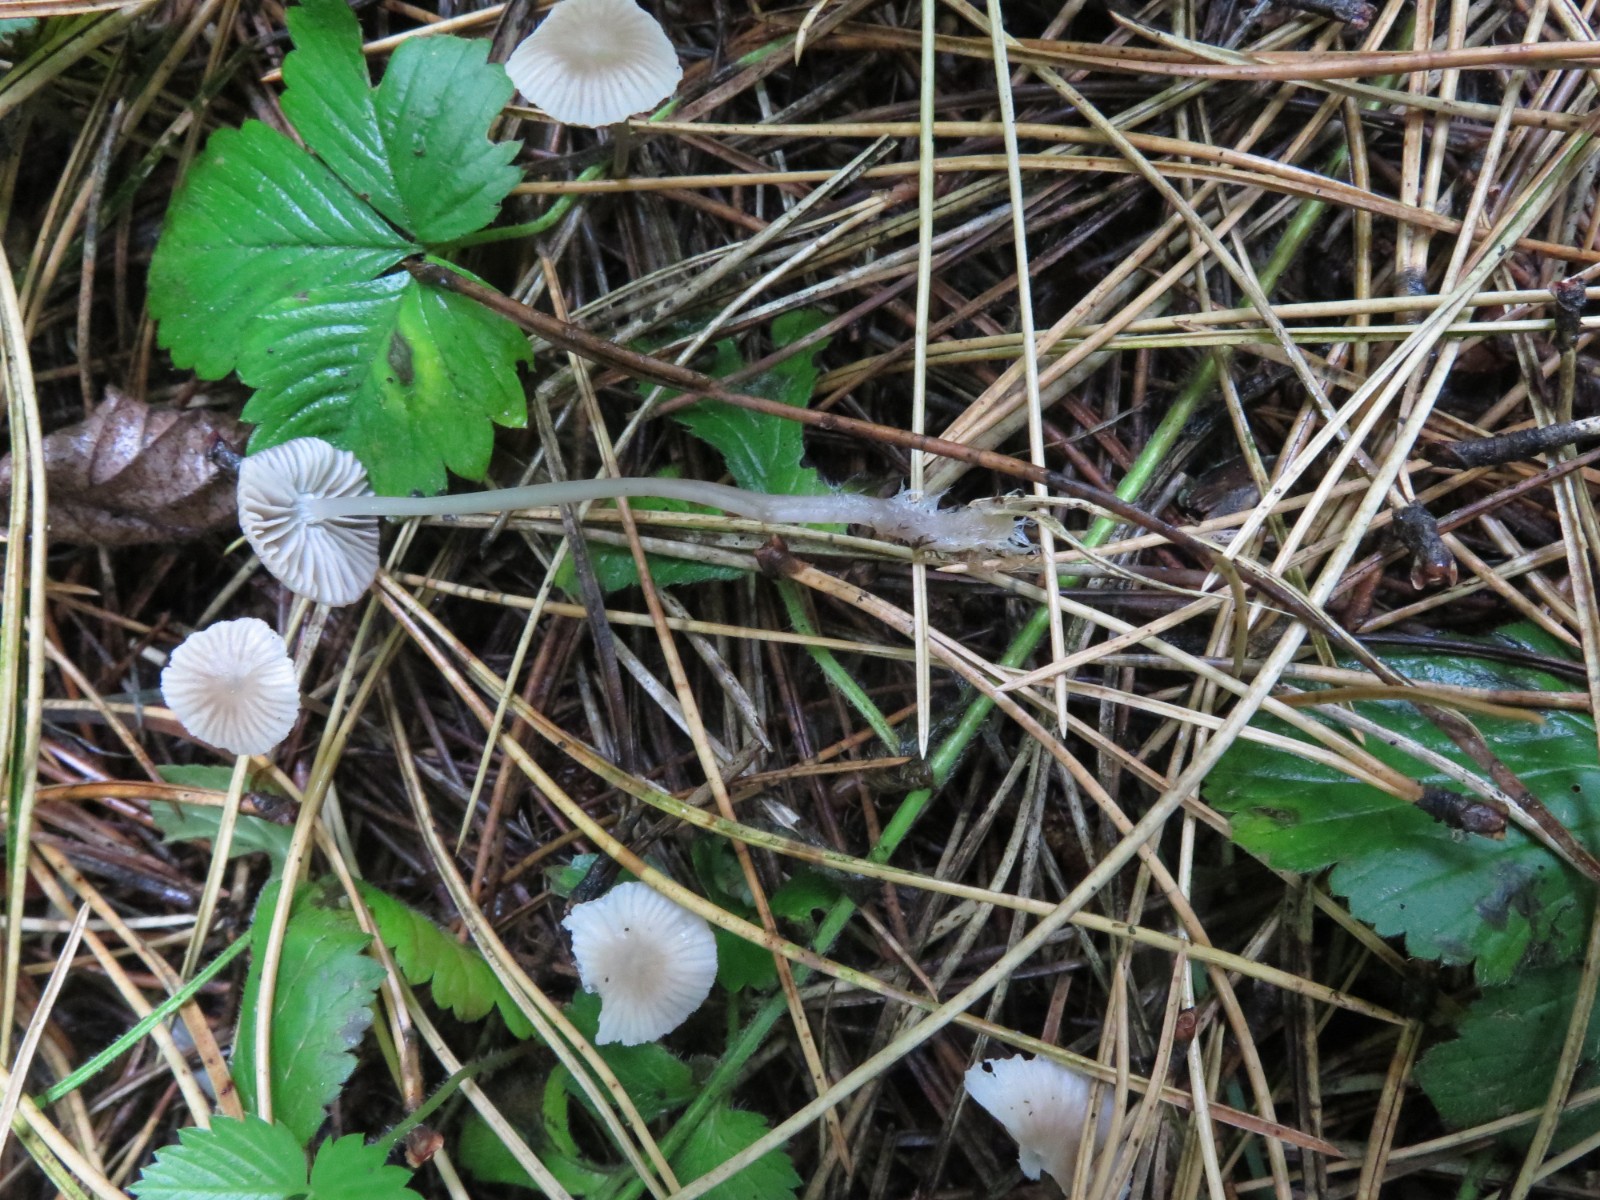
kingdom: Fungi
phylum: Basidiomycota
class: Agaricomycetes
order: Agaricales
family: Mycenaceae
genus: Mycena
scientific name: Mycena
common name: huesvamp
